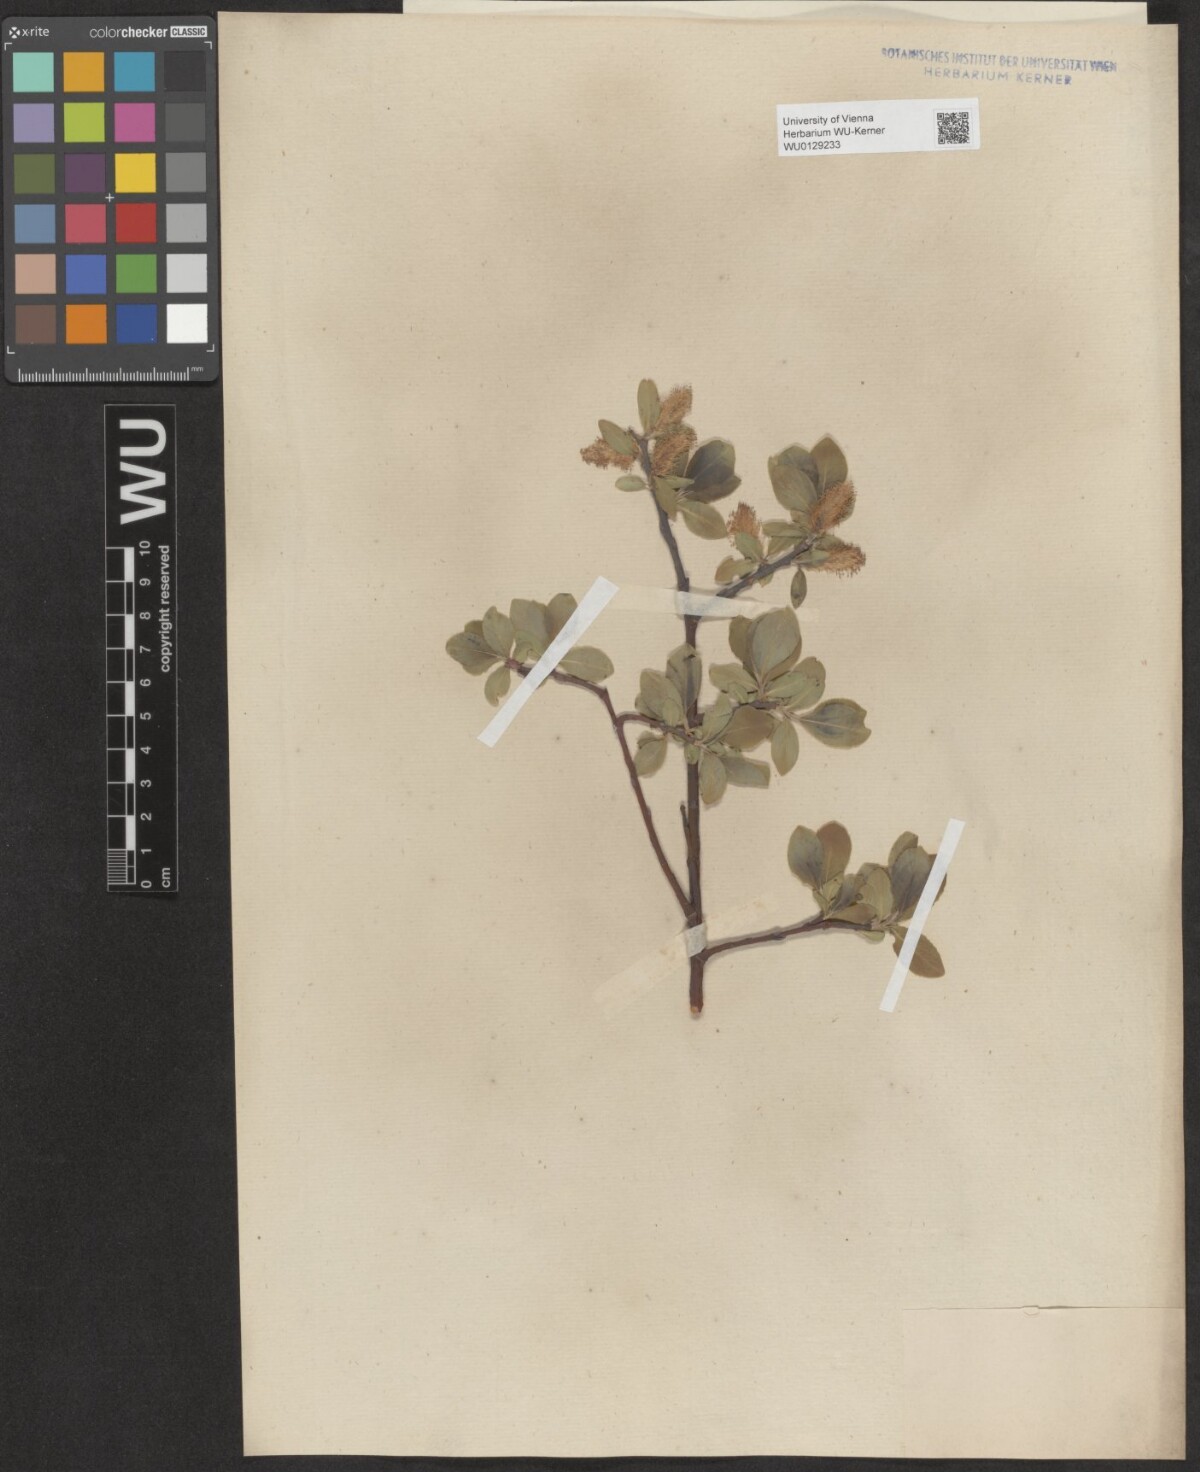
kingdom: Plantae
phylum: Tracheophyta
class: Magnoliopsida
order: Malpighiales
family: Salicaceae
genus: Salix
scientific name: Salix glabra
